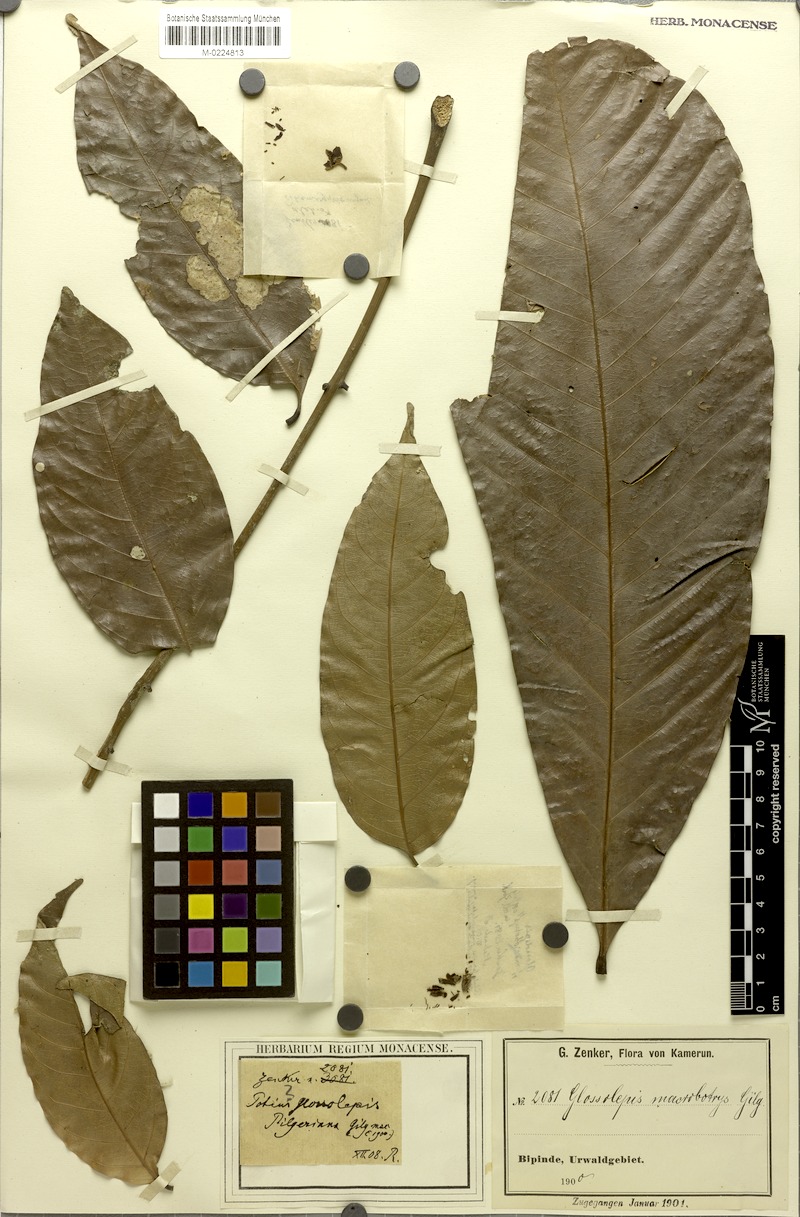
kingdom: Plantae
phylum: Tracheophyta
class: Magnoliopsida
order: Sapindales
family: Sapindaceae
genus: Chytranthus
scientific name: Chytranthus macrobotrys
